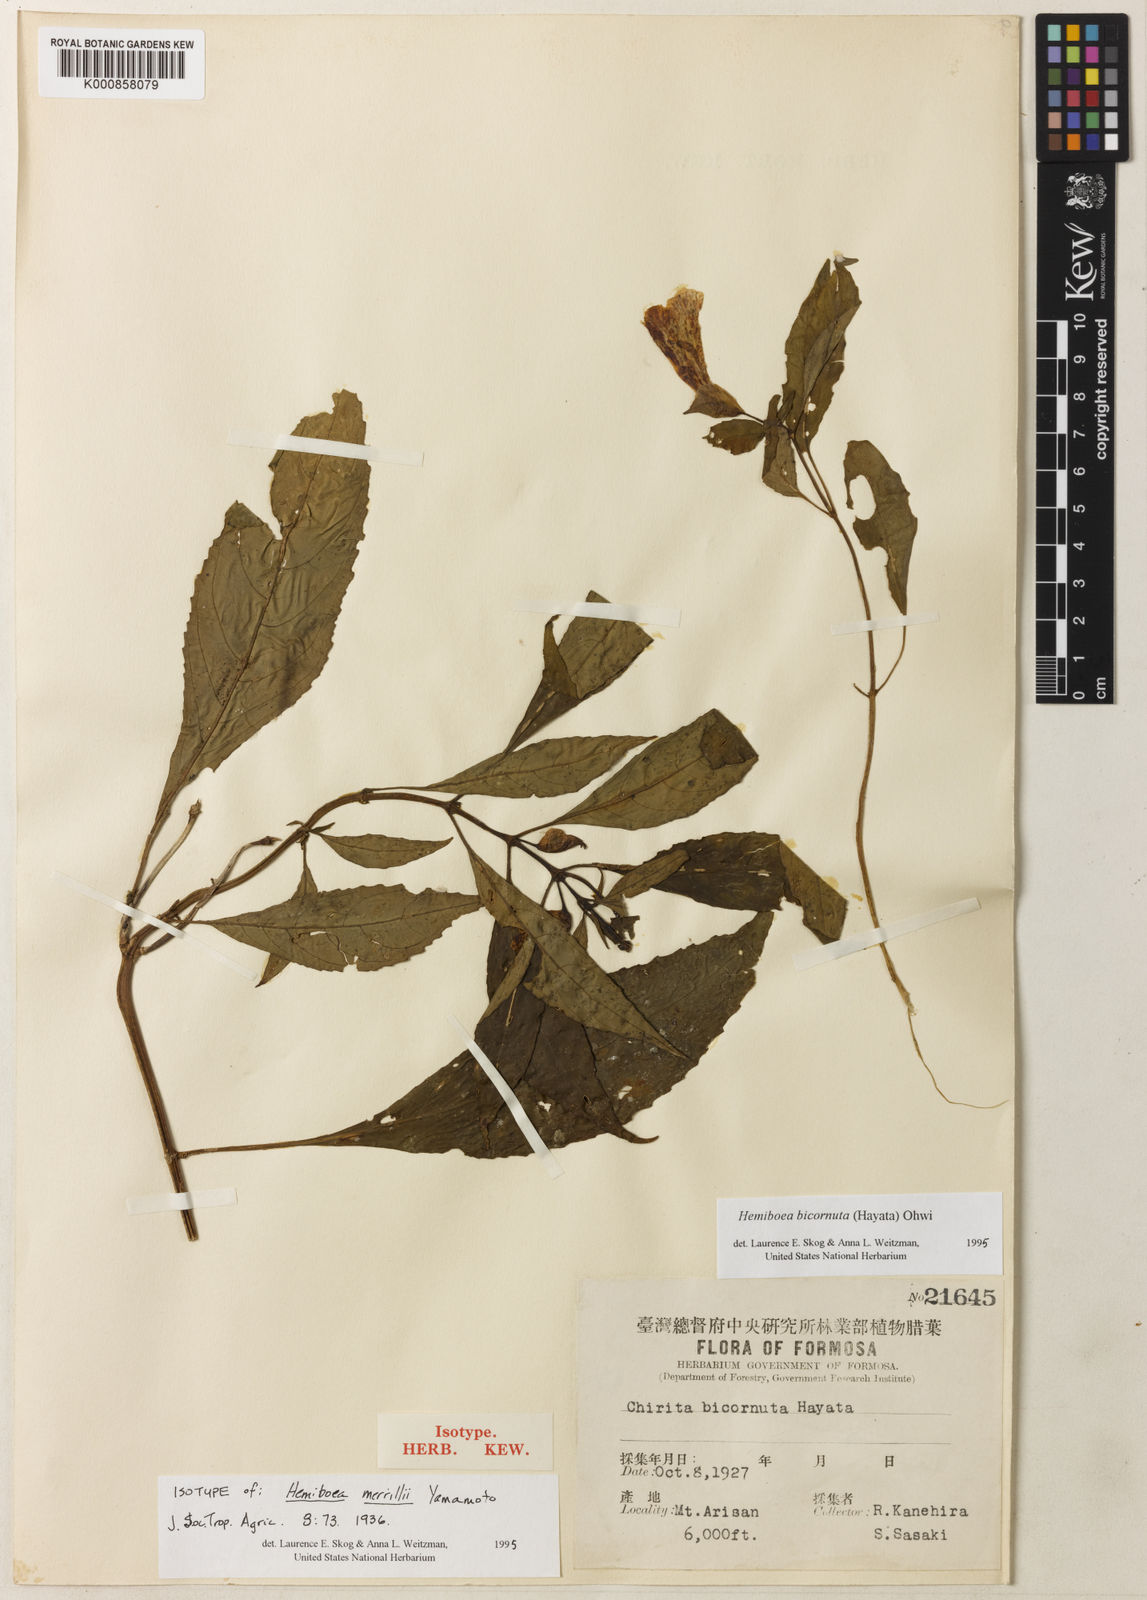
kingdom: Plantae
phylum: Tracheophyta
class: Magnoliopsida
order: Lamiales
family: Gesneriaceae
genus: Hemiboea
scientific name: Hemiboea bicornuta
